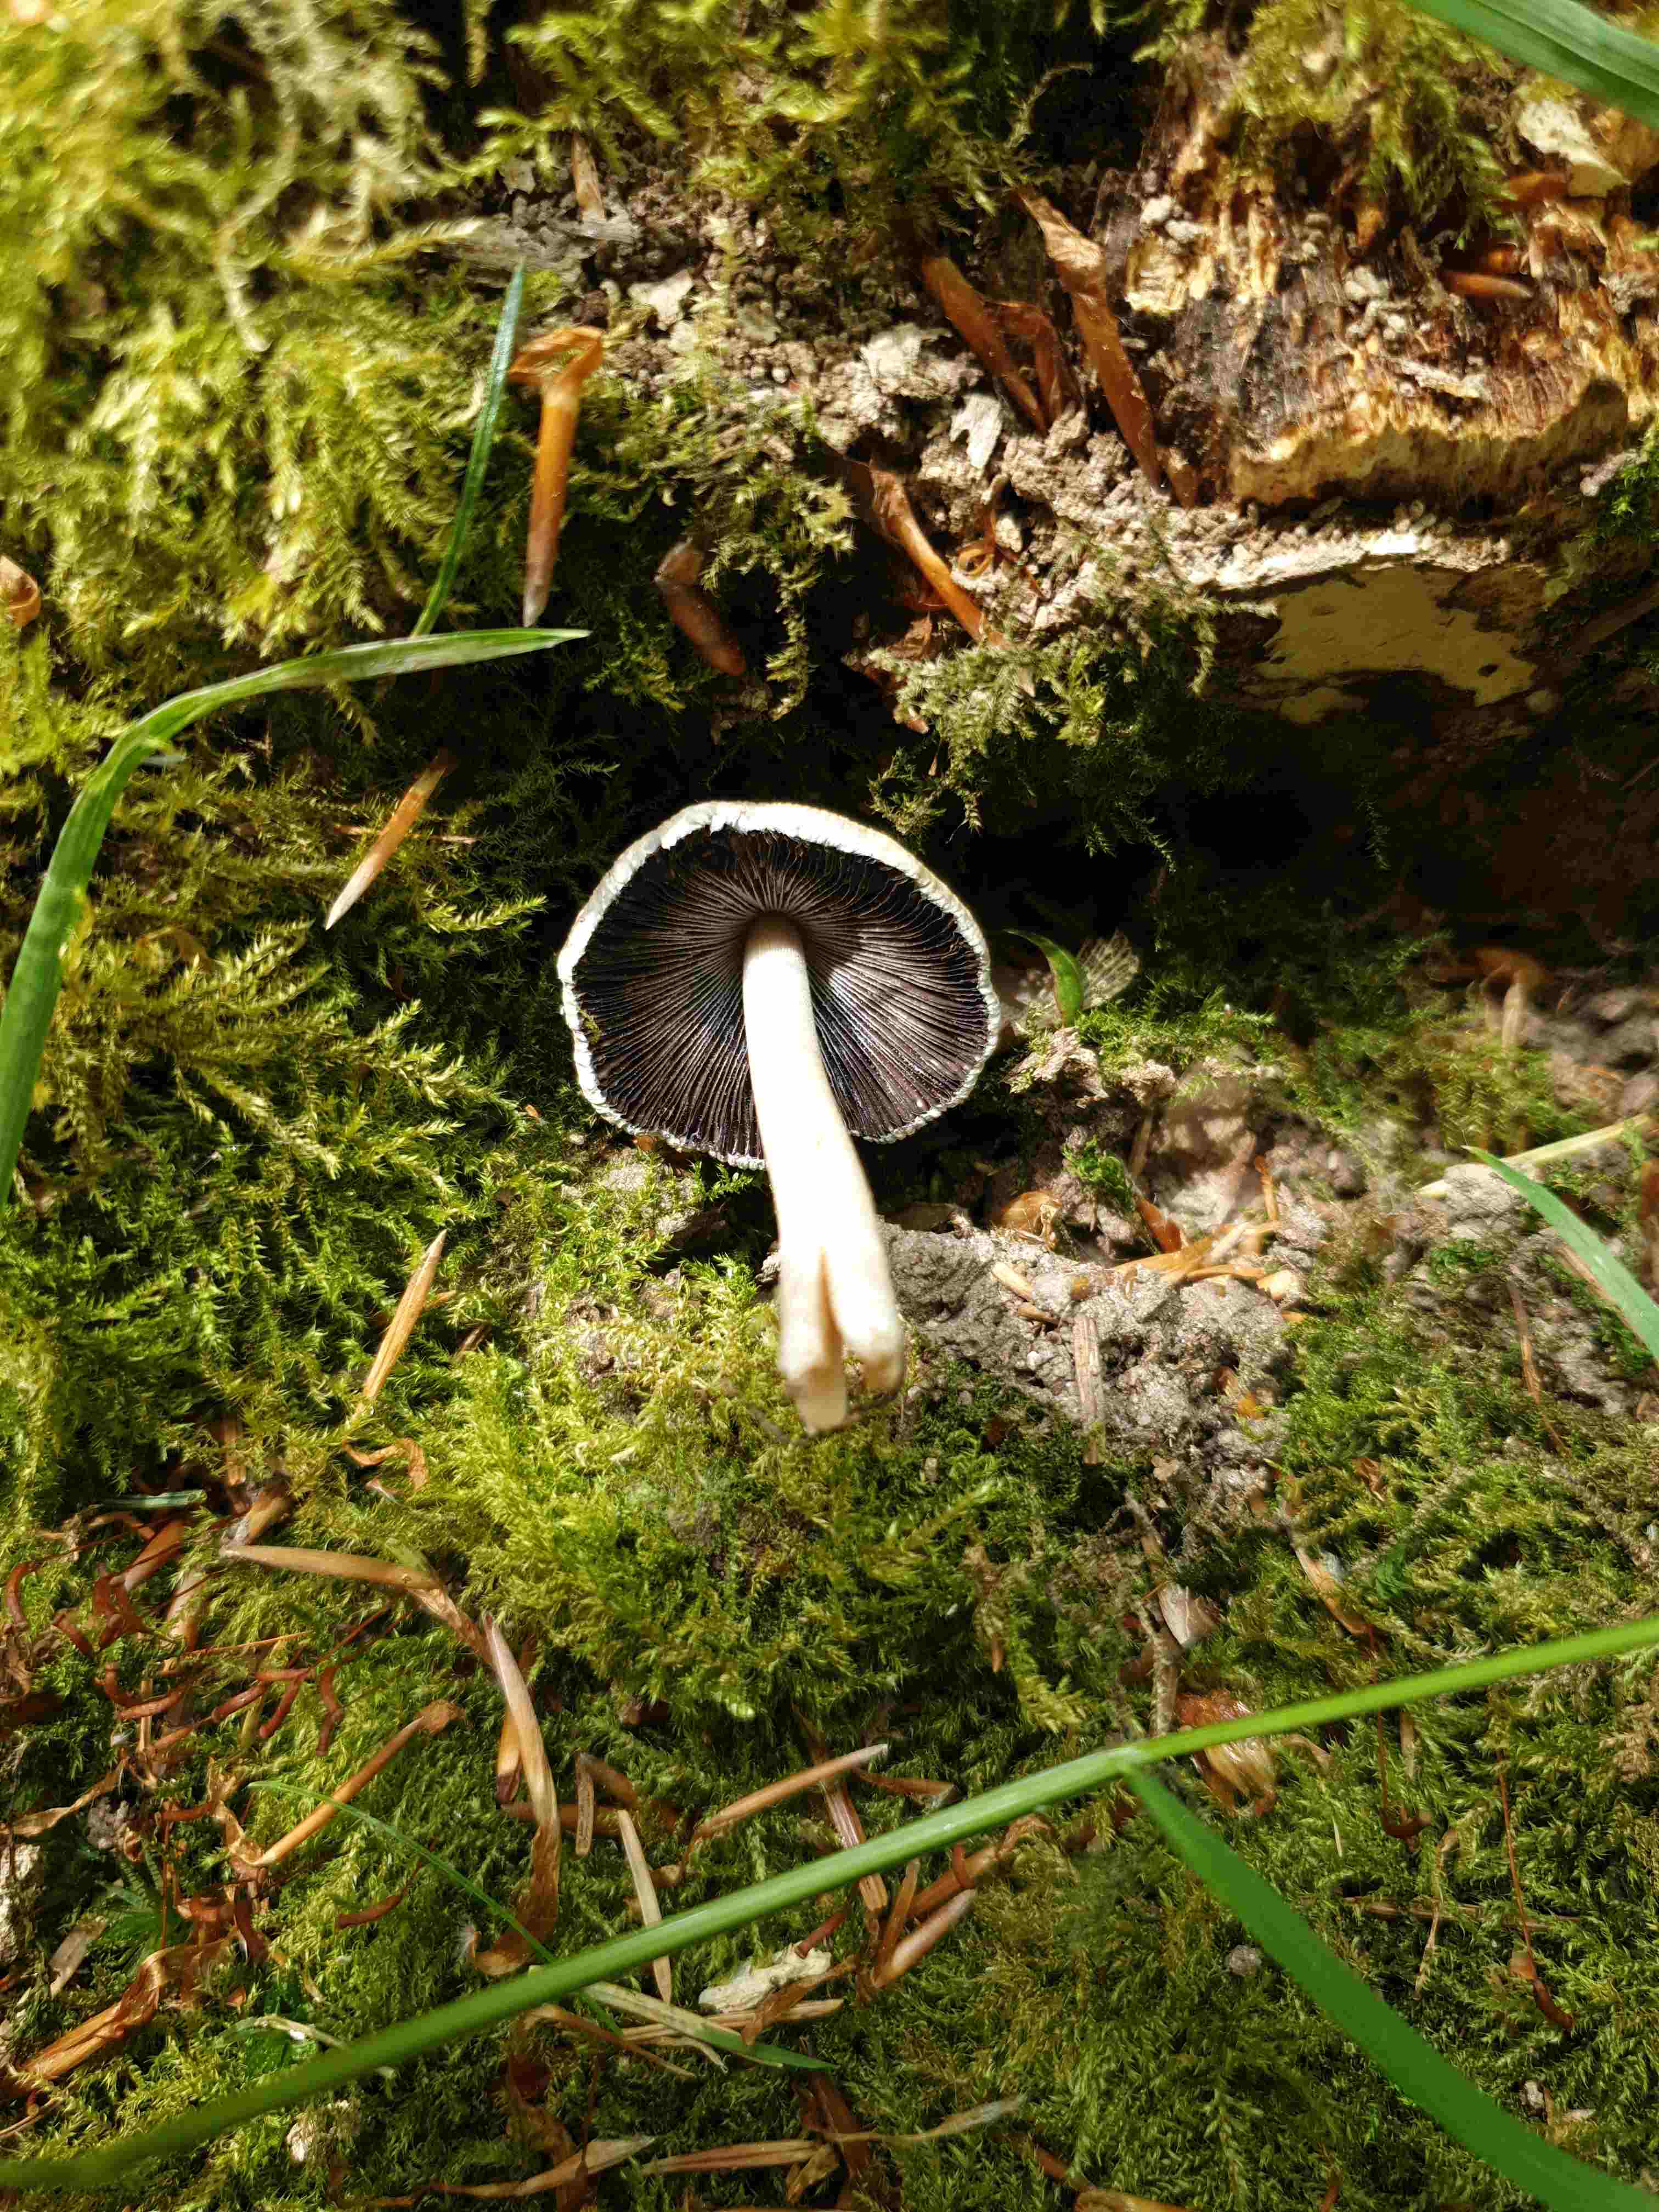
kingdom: Fungi
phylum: Basidiomycota
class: Agaricomycetes
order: Agaricales
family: Psathyrellaceae
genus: Coprinellus
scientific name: Coprinellus micaceus
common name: glimmer-blækhat
